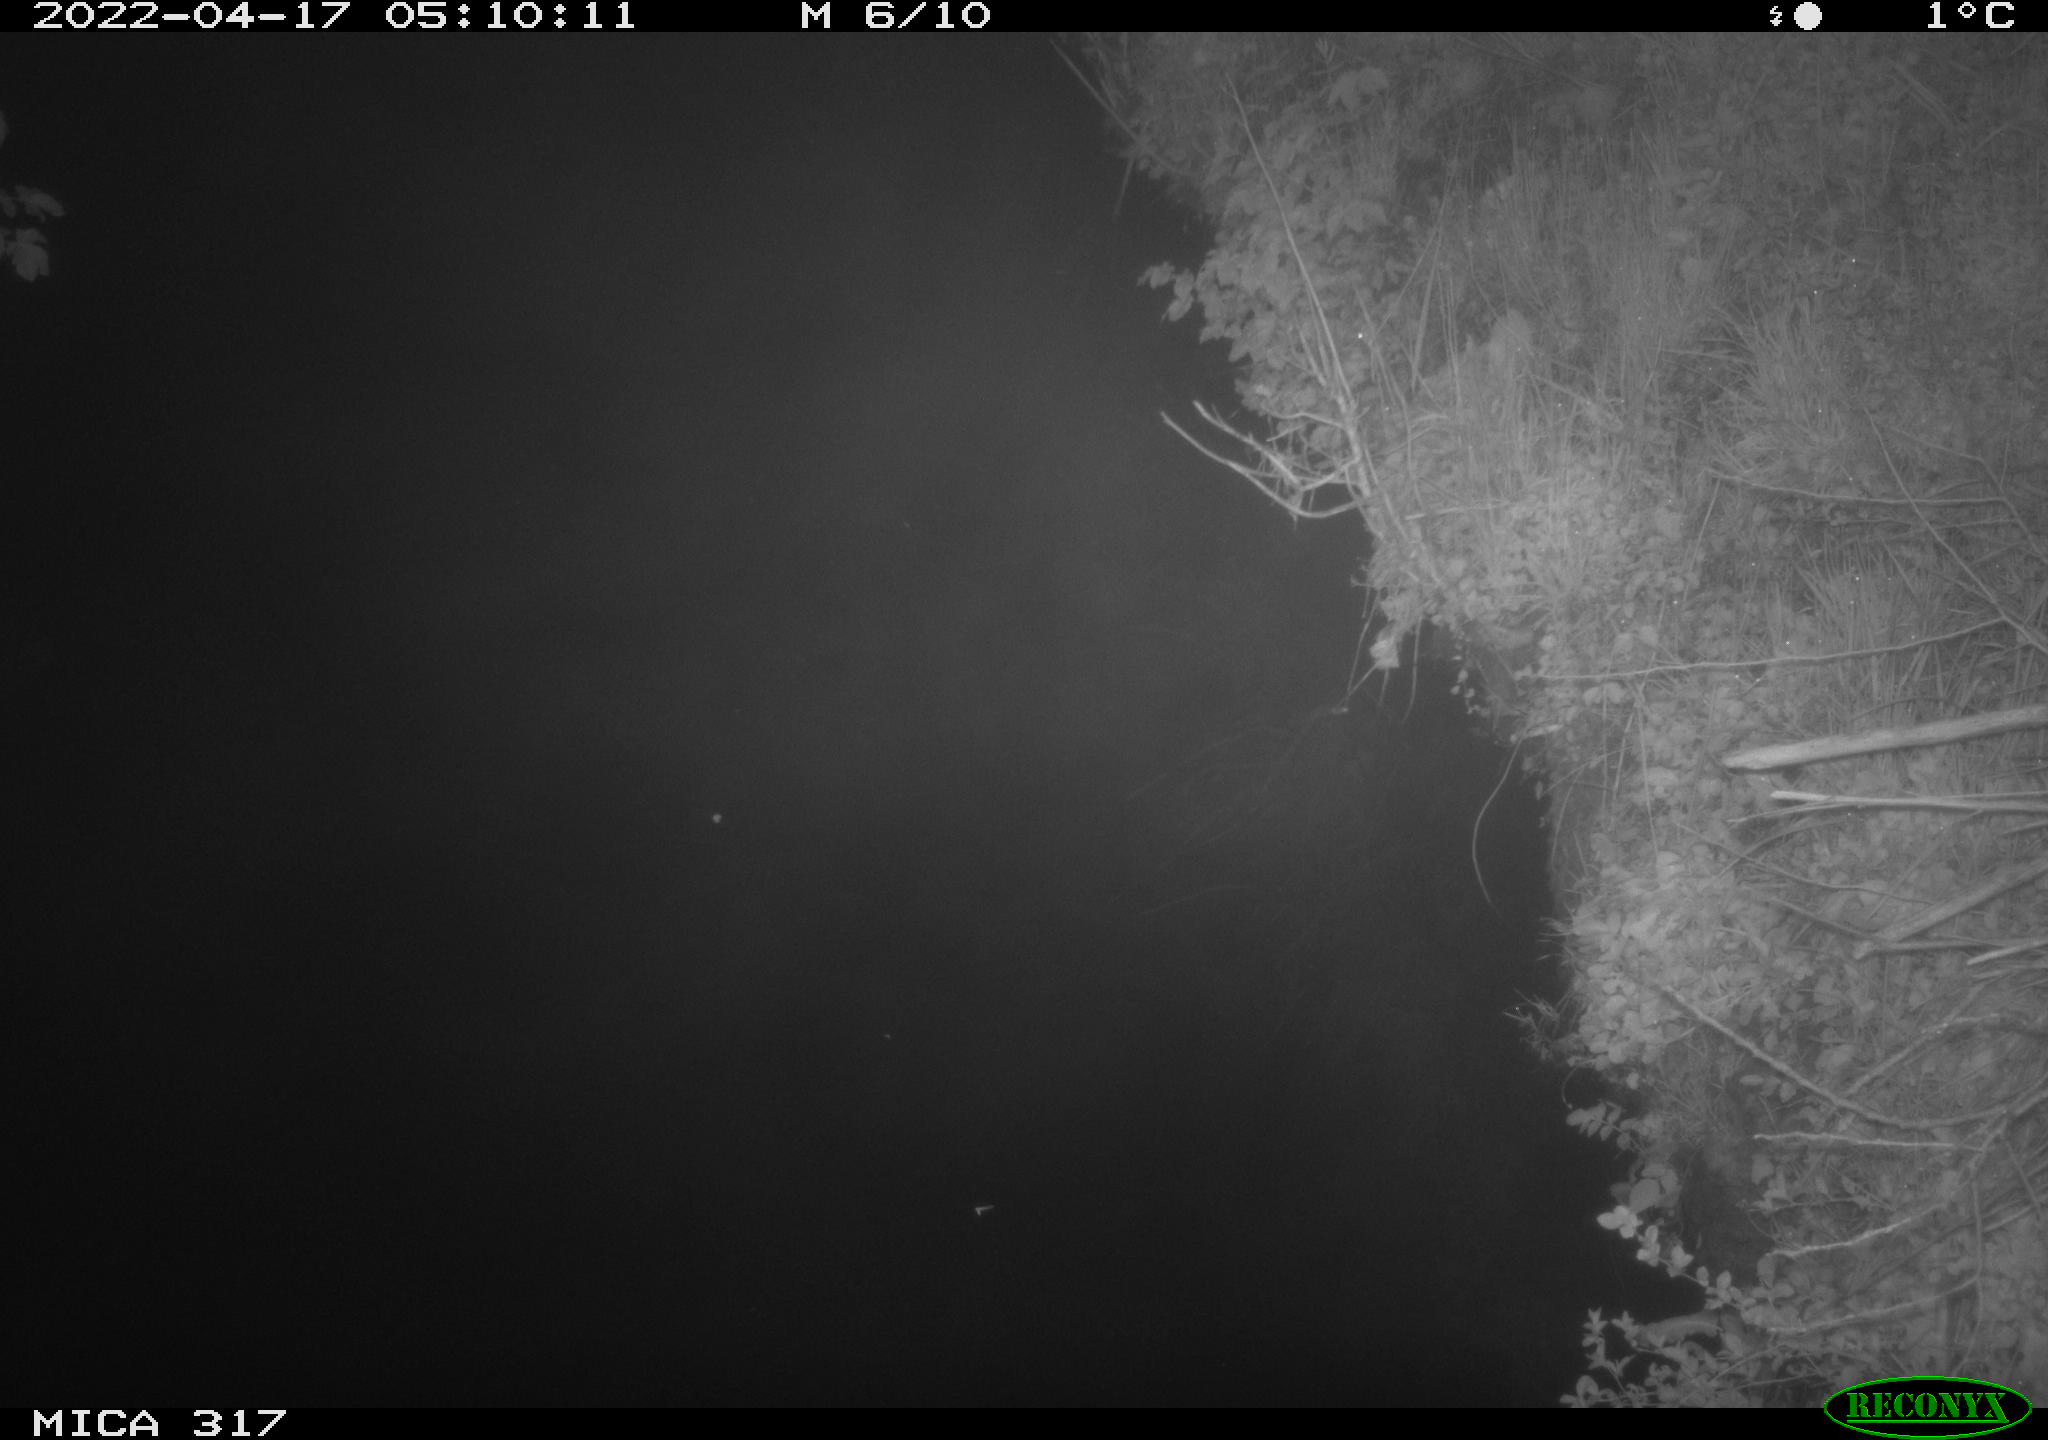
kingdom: Animalia
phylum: Chordata
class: Aves
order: Anseriformes
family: Anatidae
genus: Anas
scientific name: Anas platyrhynchos
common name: Mallard
